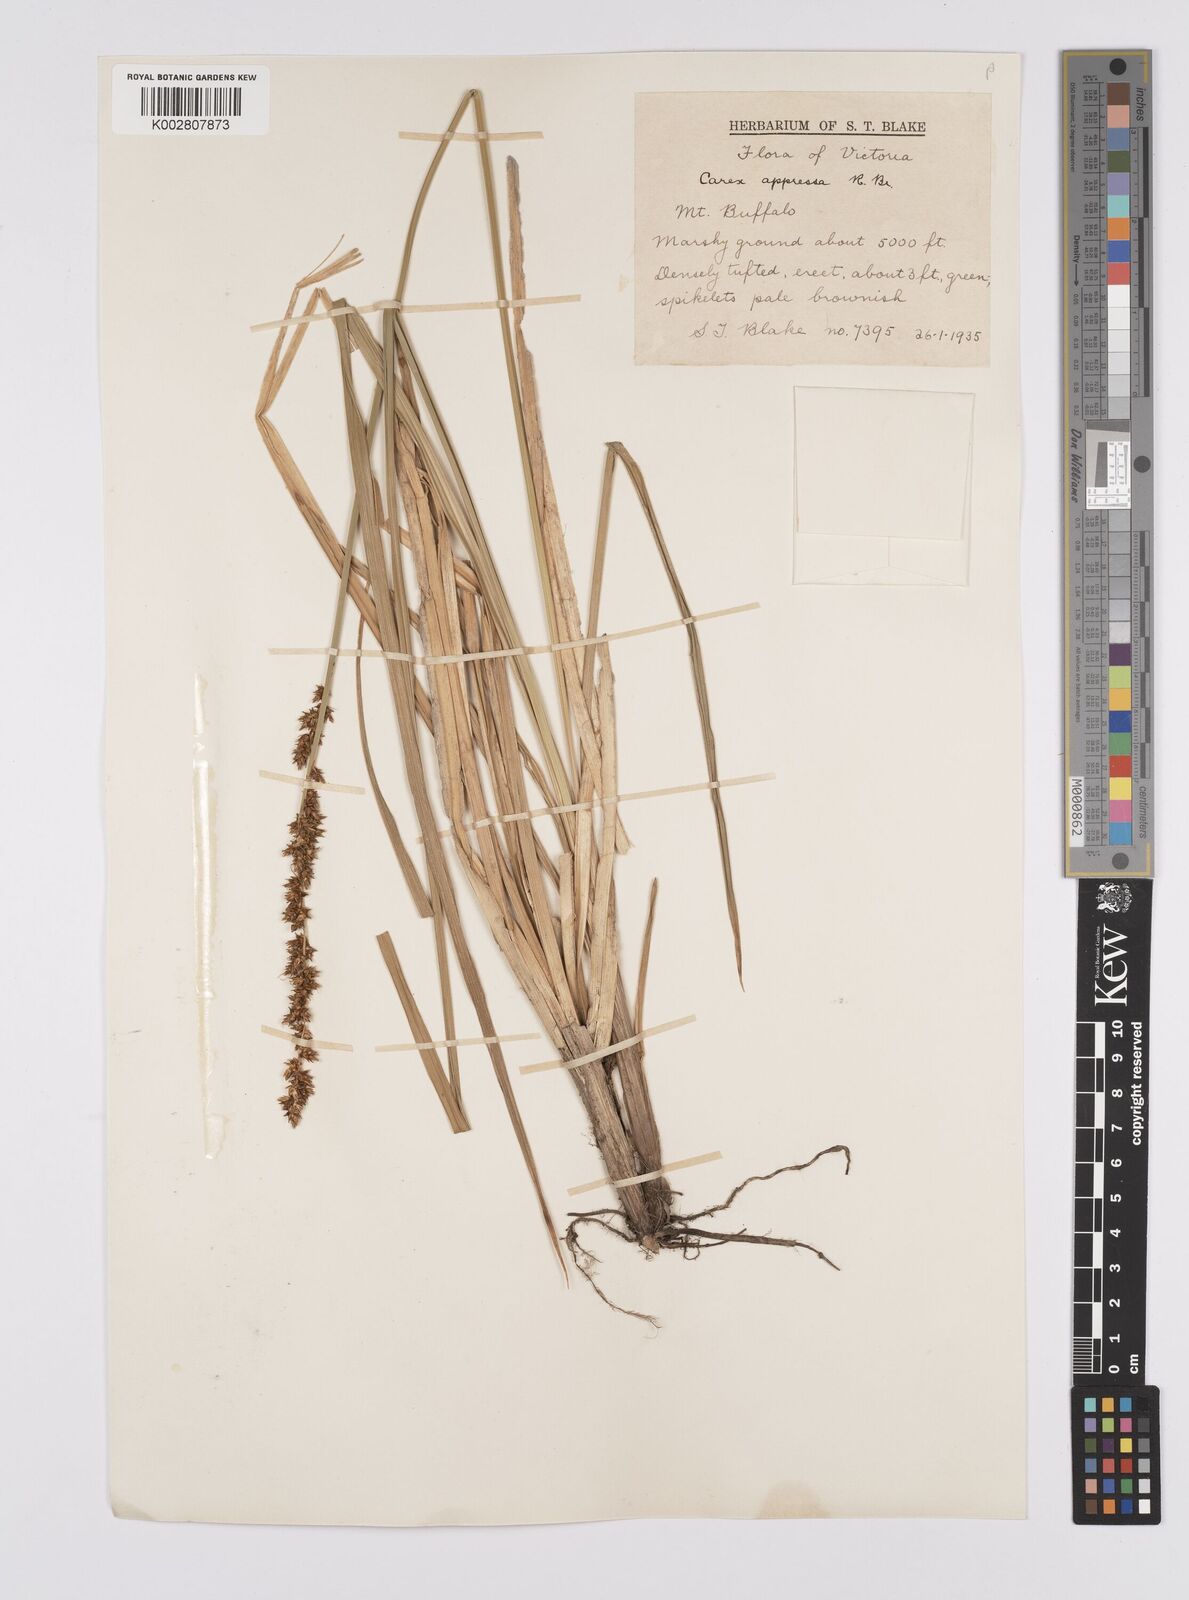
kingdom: Plantae
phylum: Tracheophyta
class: Liliopsida
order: Poales
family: Cyperaceae
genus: Carex
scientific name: Carex appressa
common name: Tussock sedge
